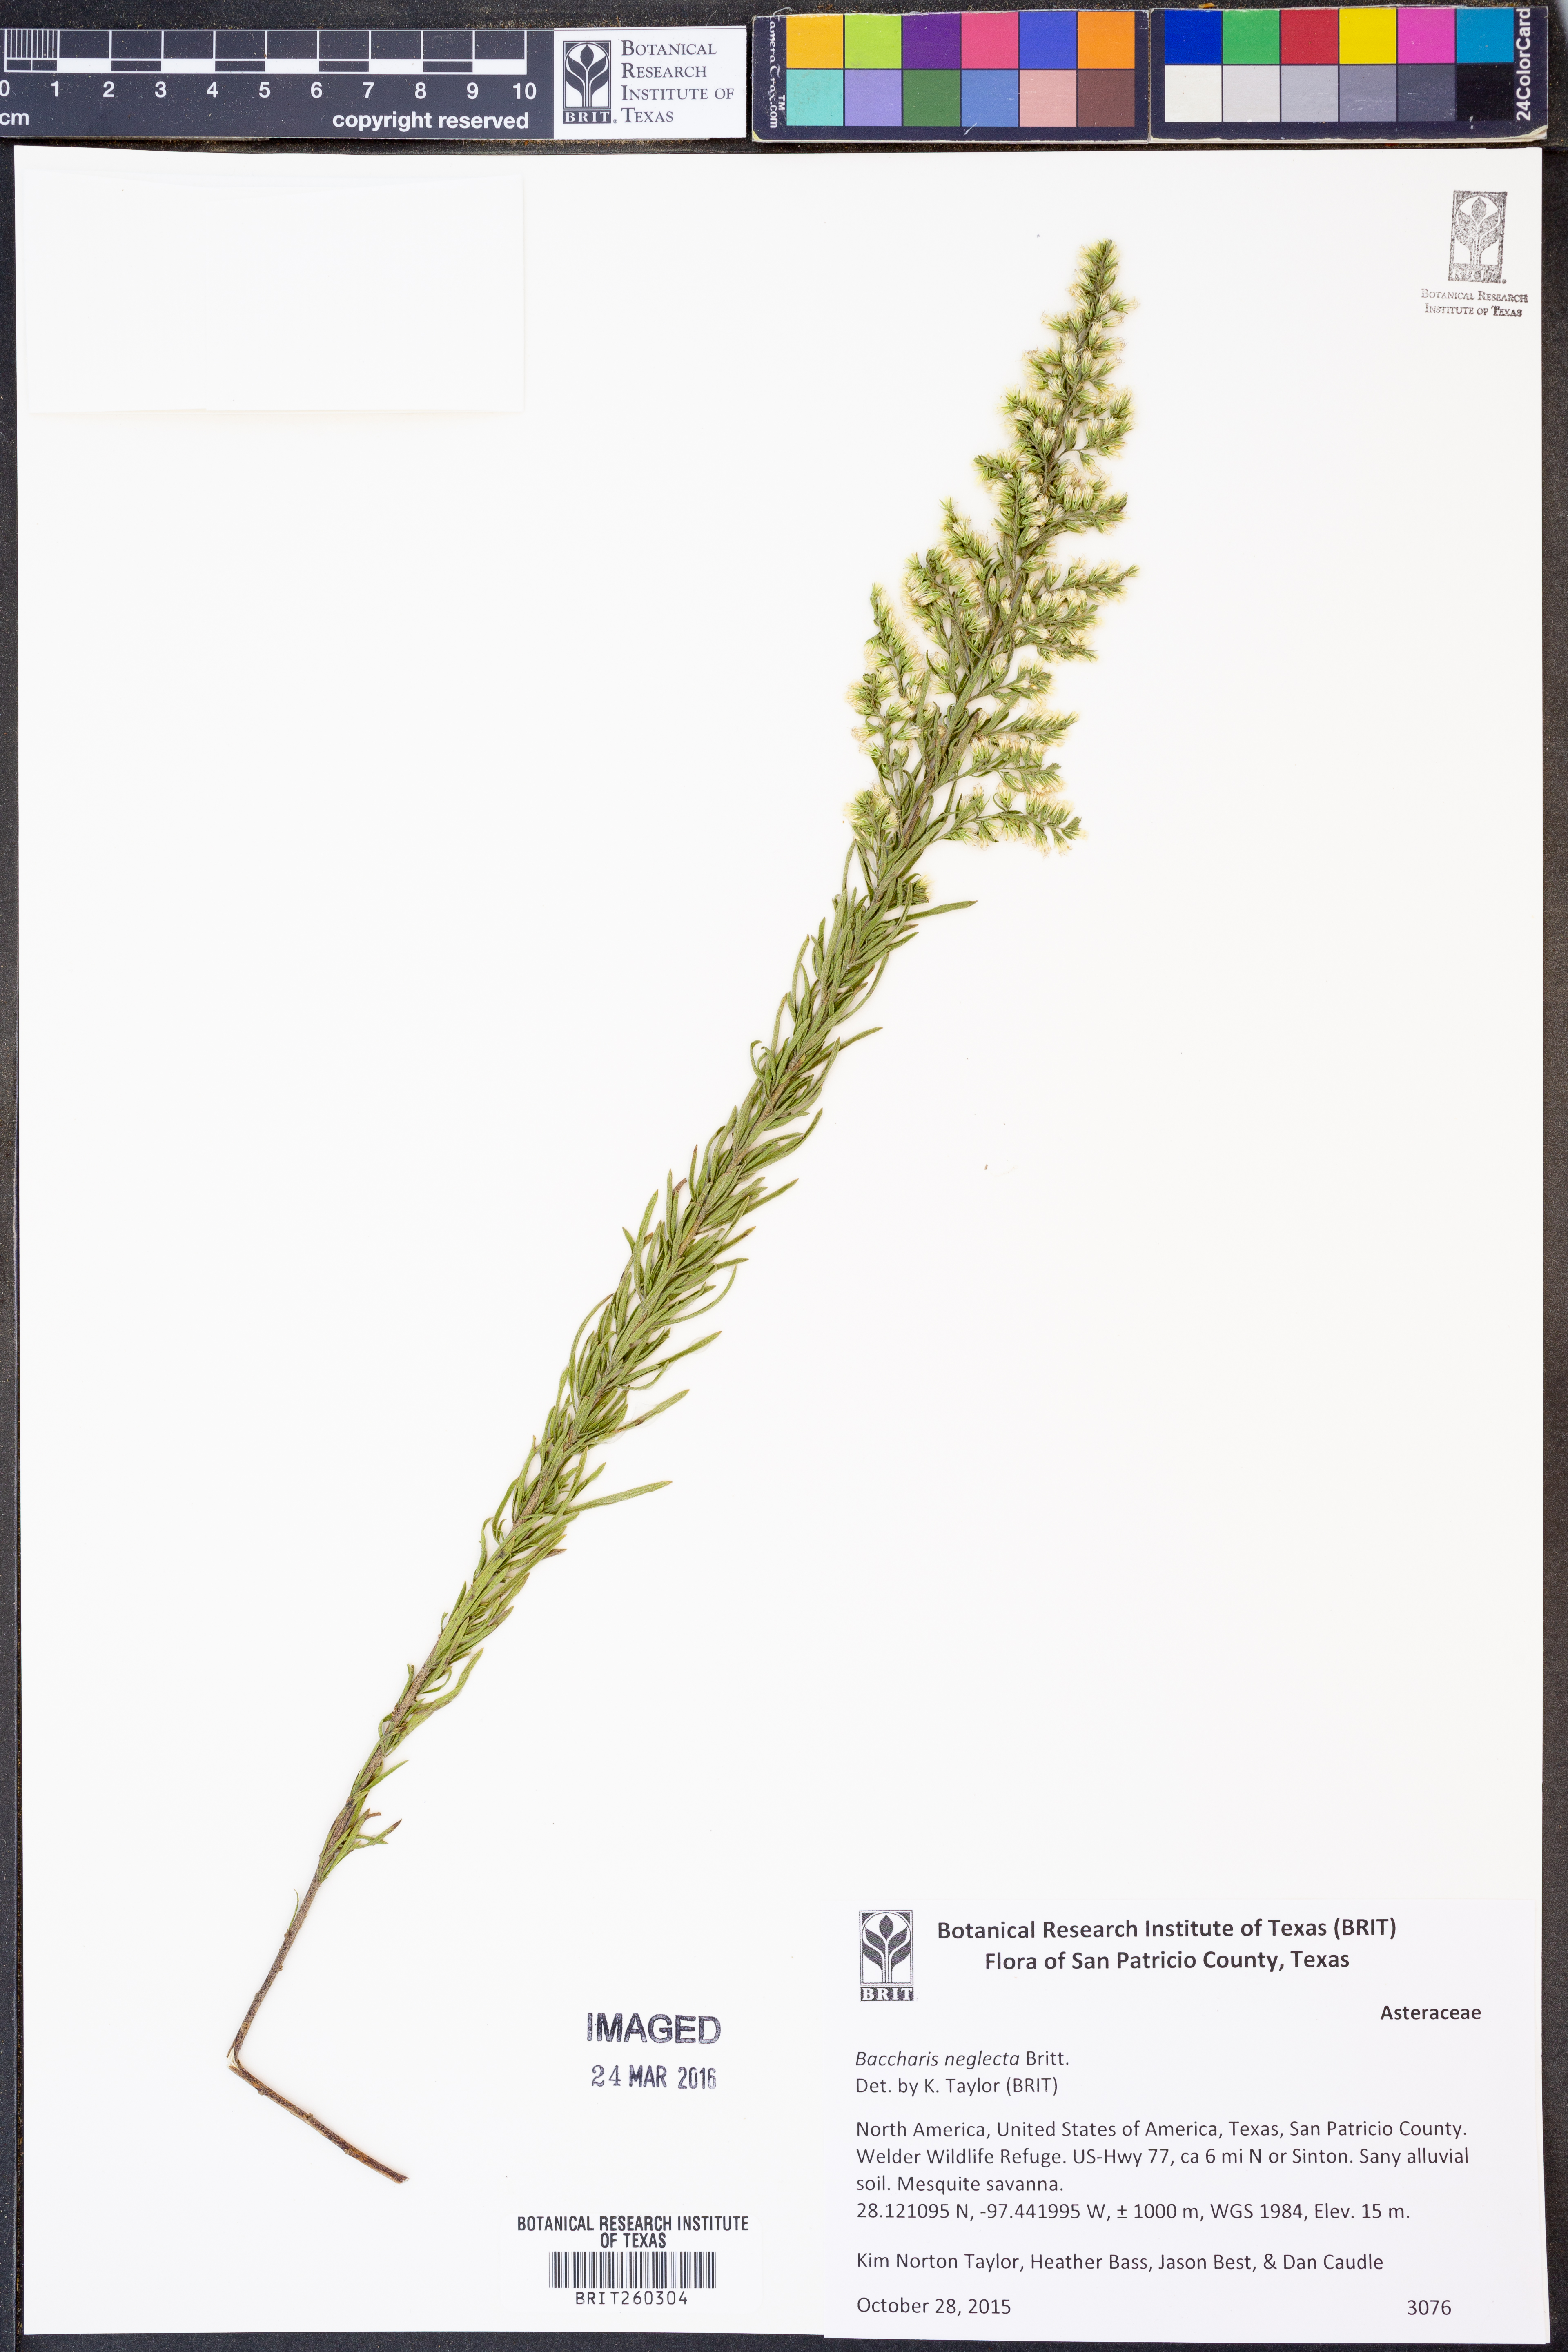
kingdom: Plantae
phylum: Tracheophyta
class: Magnoliopsida
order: Asterales
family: Asteraceae
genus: Baccharis
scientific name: Baccharis neglecta
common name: Roosevelt-weed
